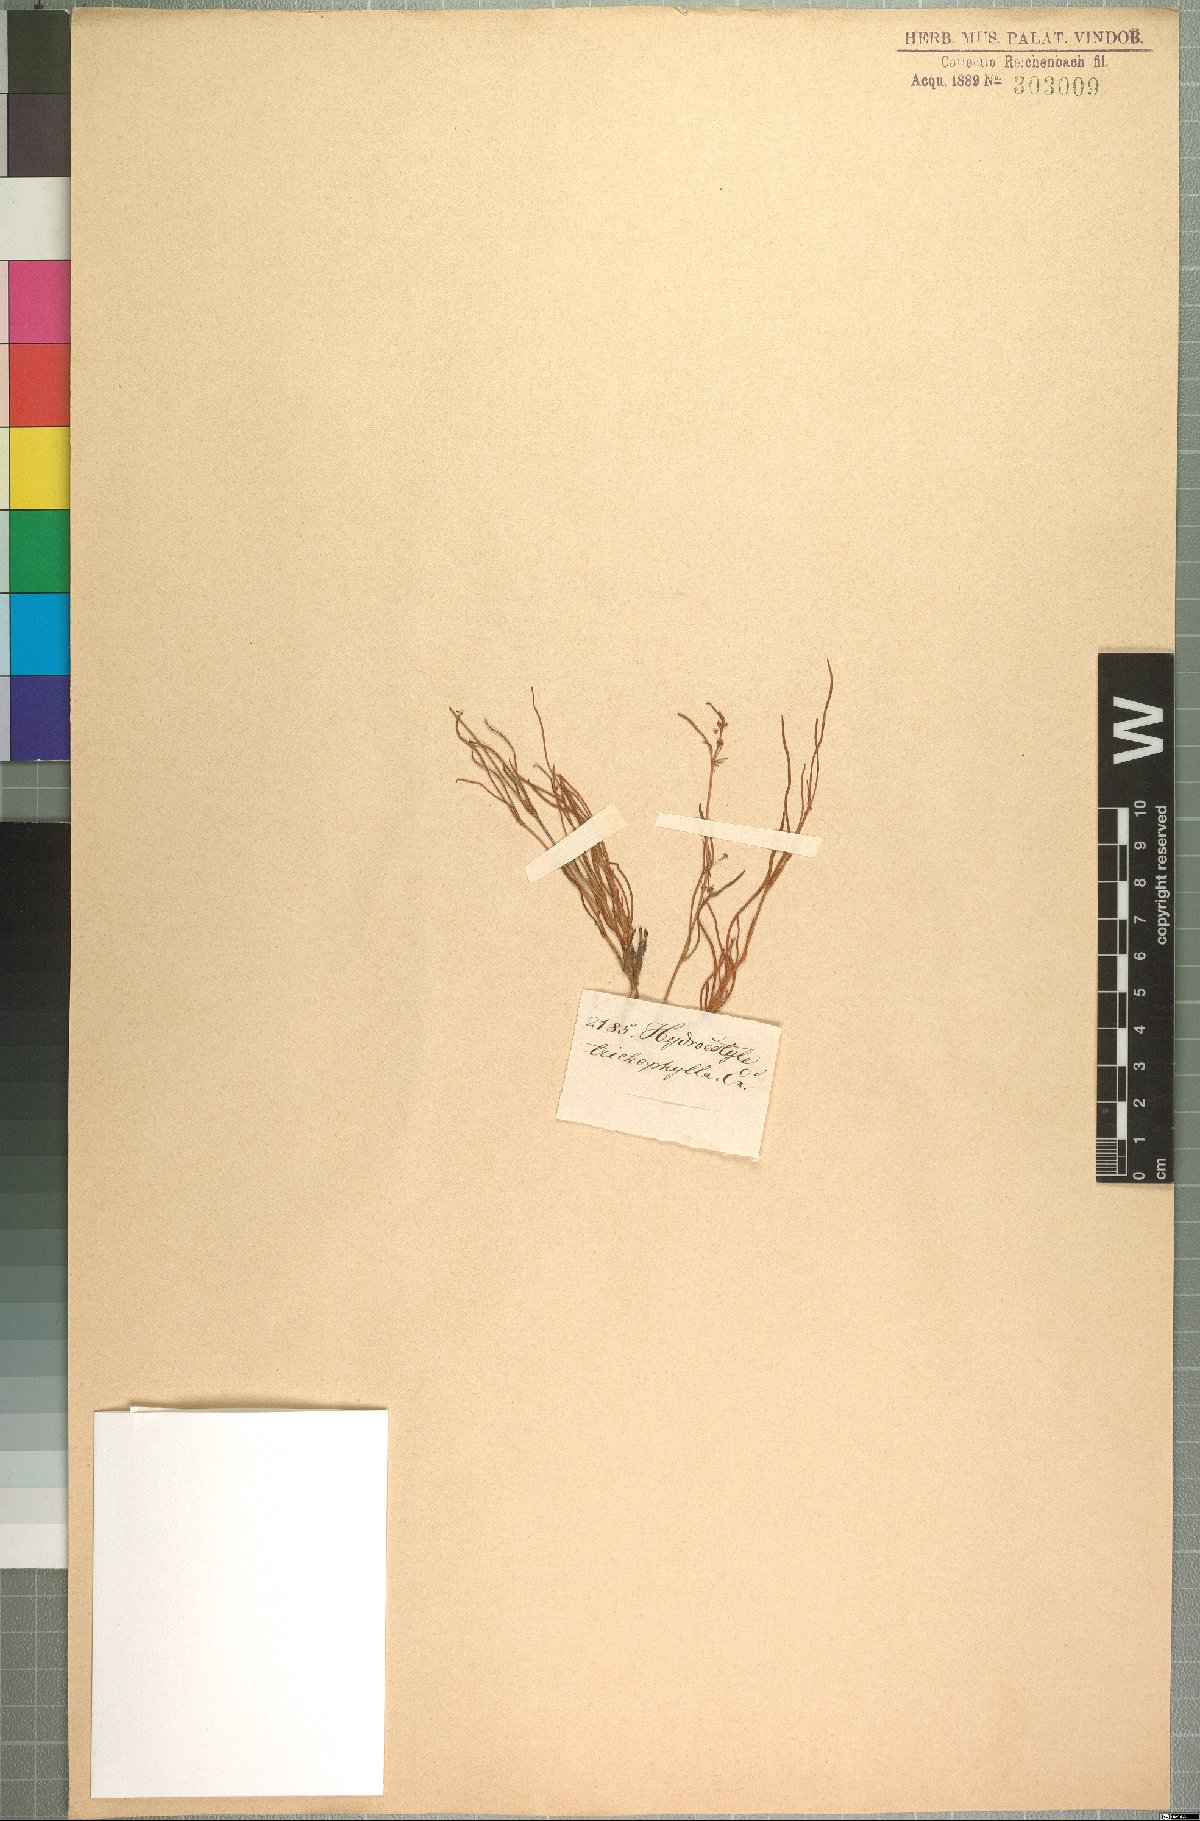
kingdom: Plantae
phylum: Tracheophyta
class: Magnoliopsida
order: Apiales
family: Apiaceae
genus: Centella
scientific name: Centella virgata
